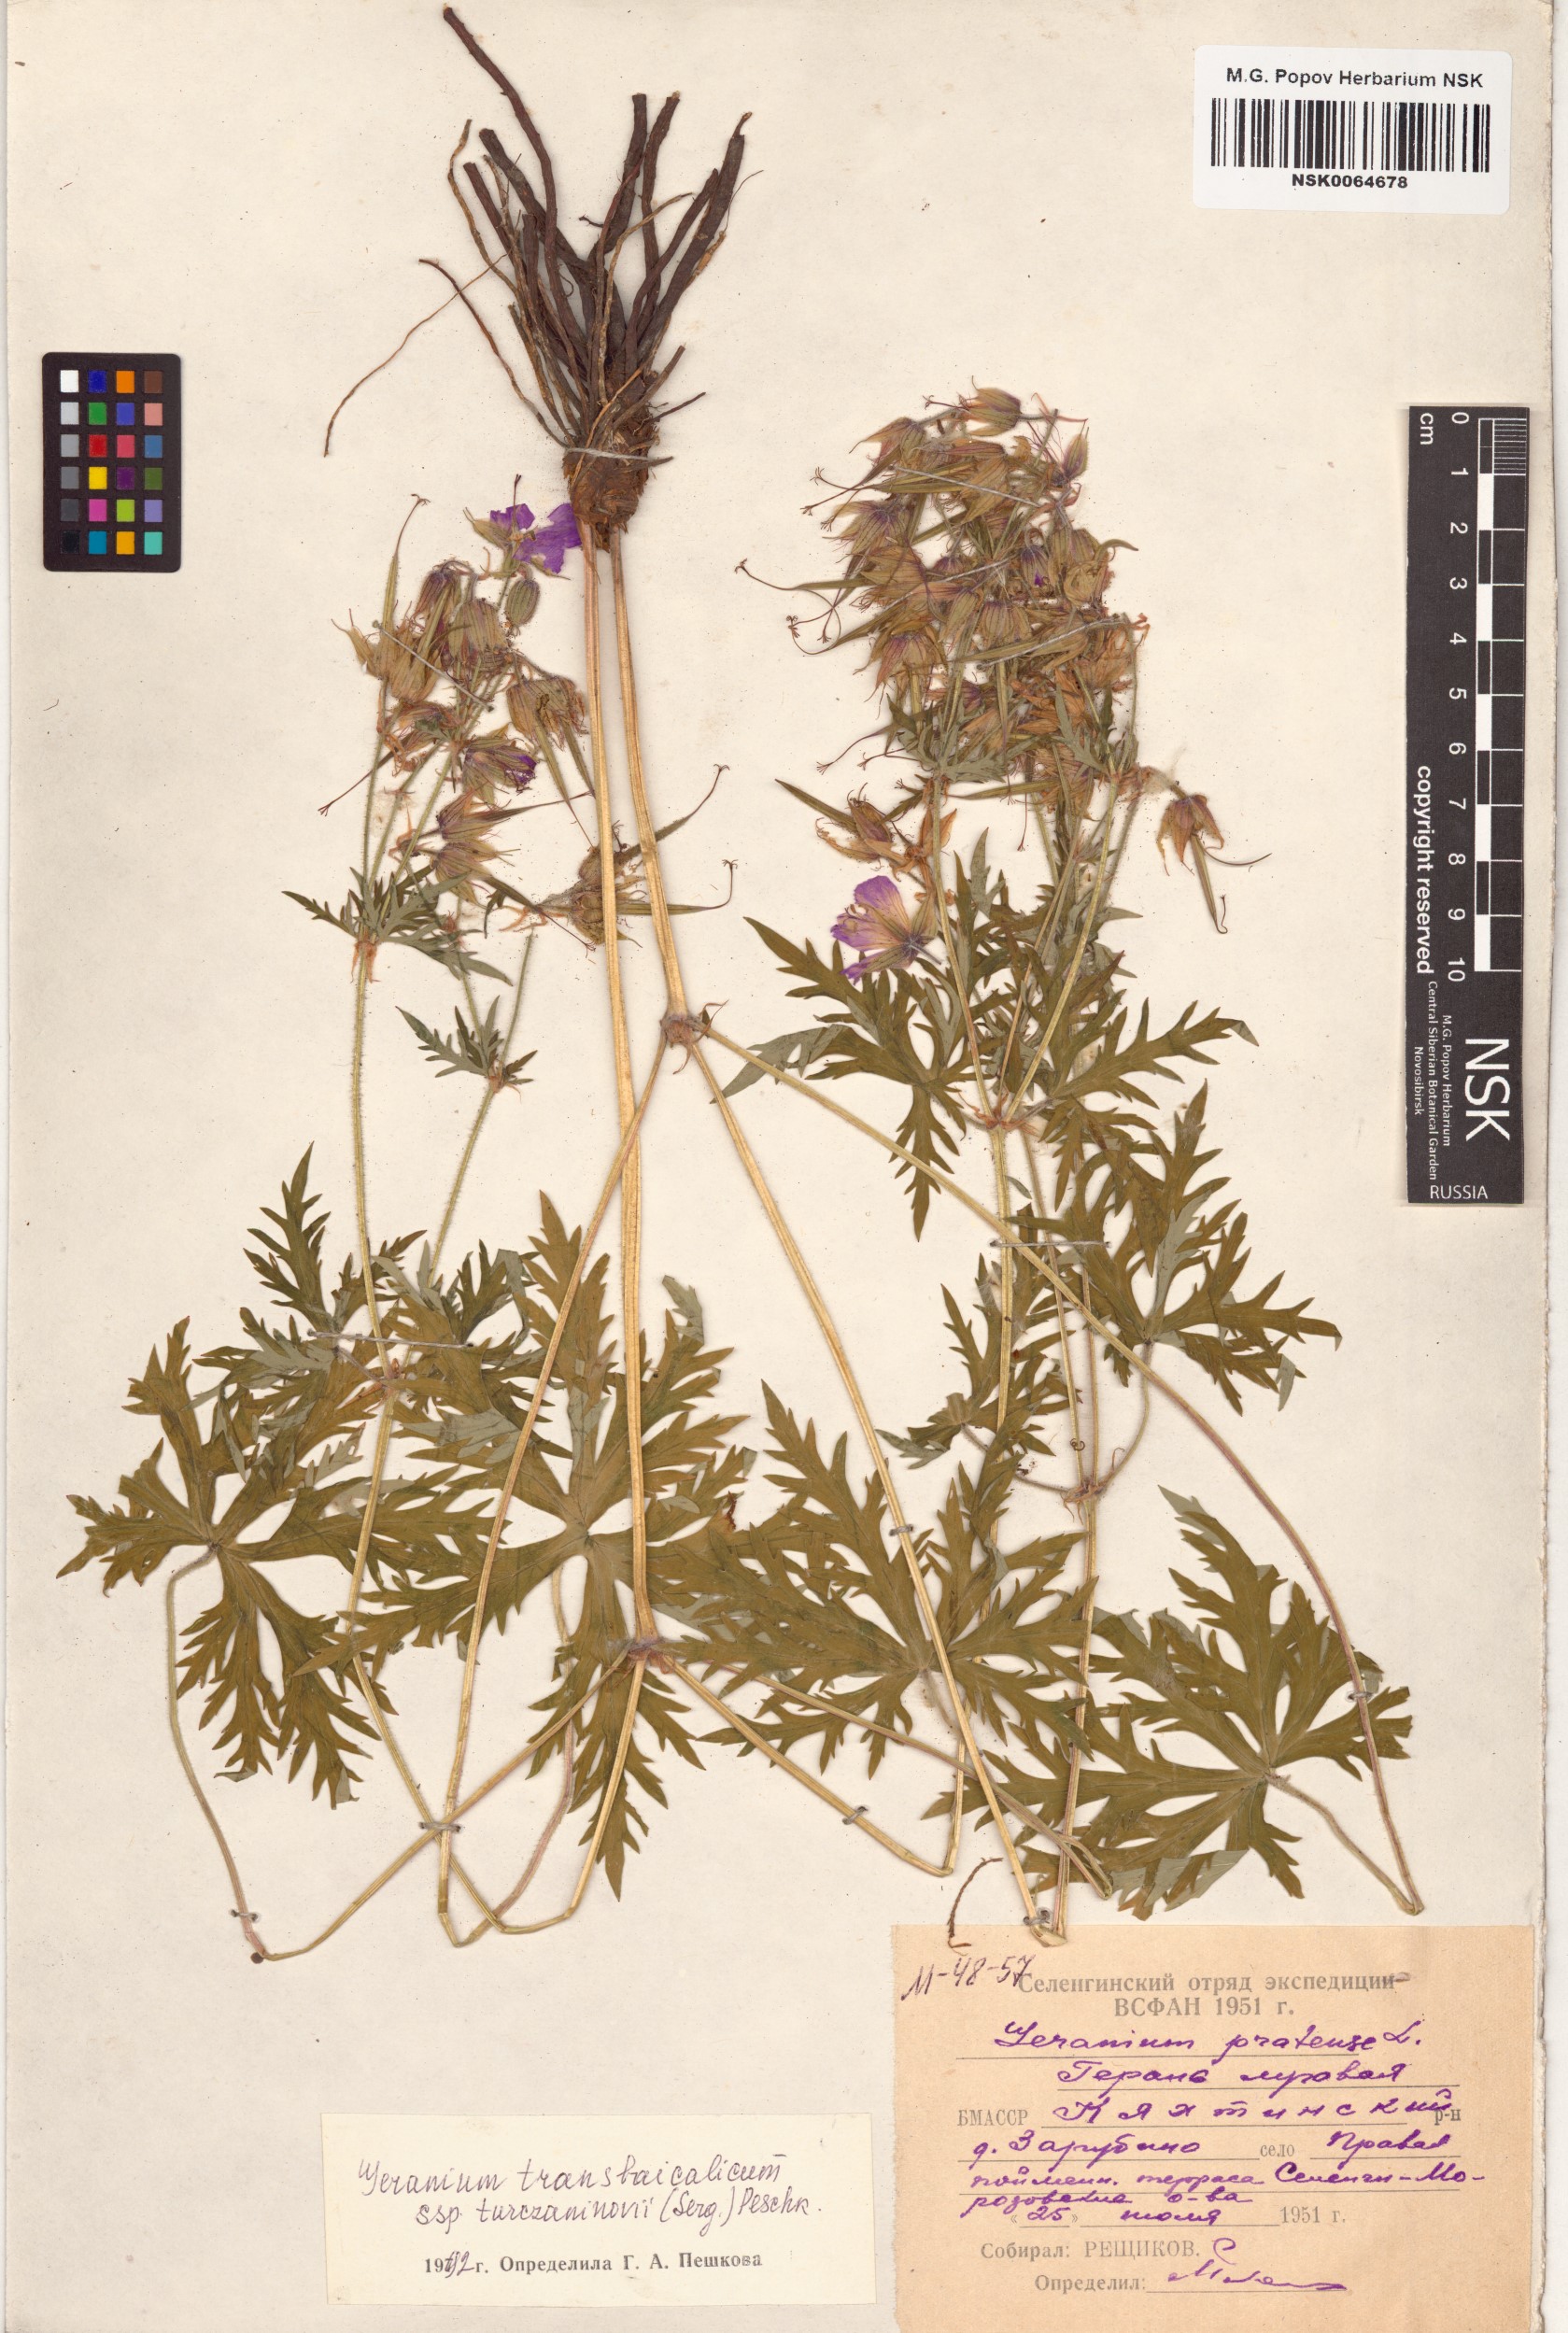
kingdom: Plantae
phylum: Tracheophyta
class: Magnoliopsida
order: Geraniales
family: Geraniaceae
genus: Geranium
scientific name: Geranium pratense
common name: Meadow crane's-bill
